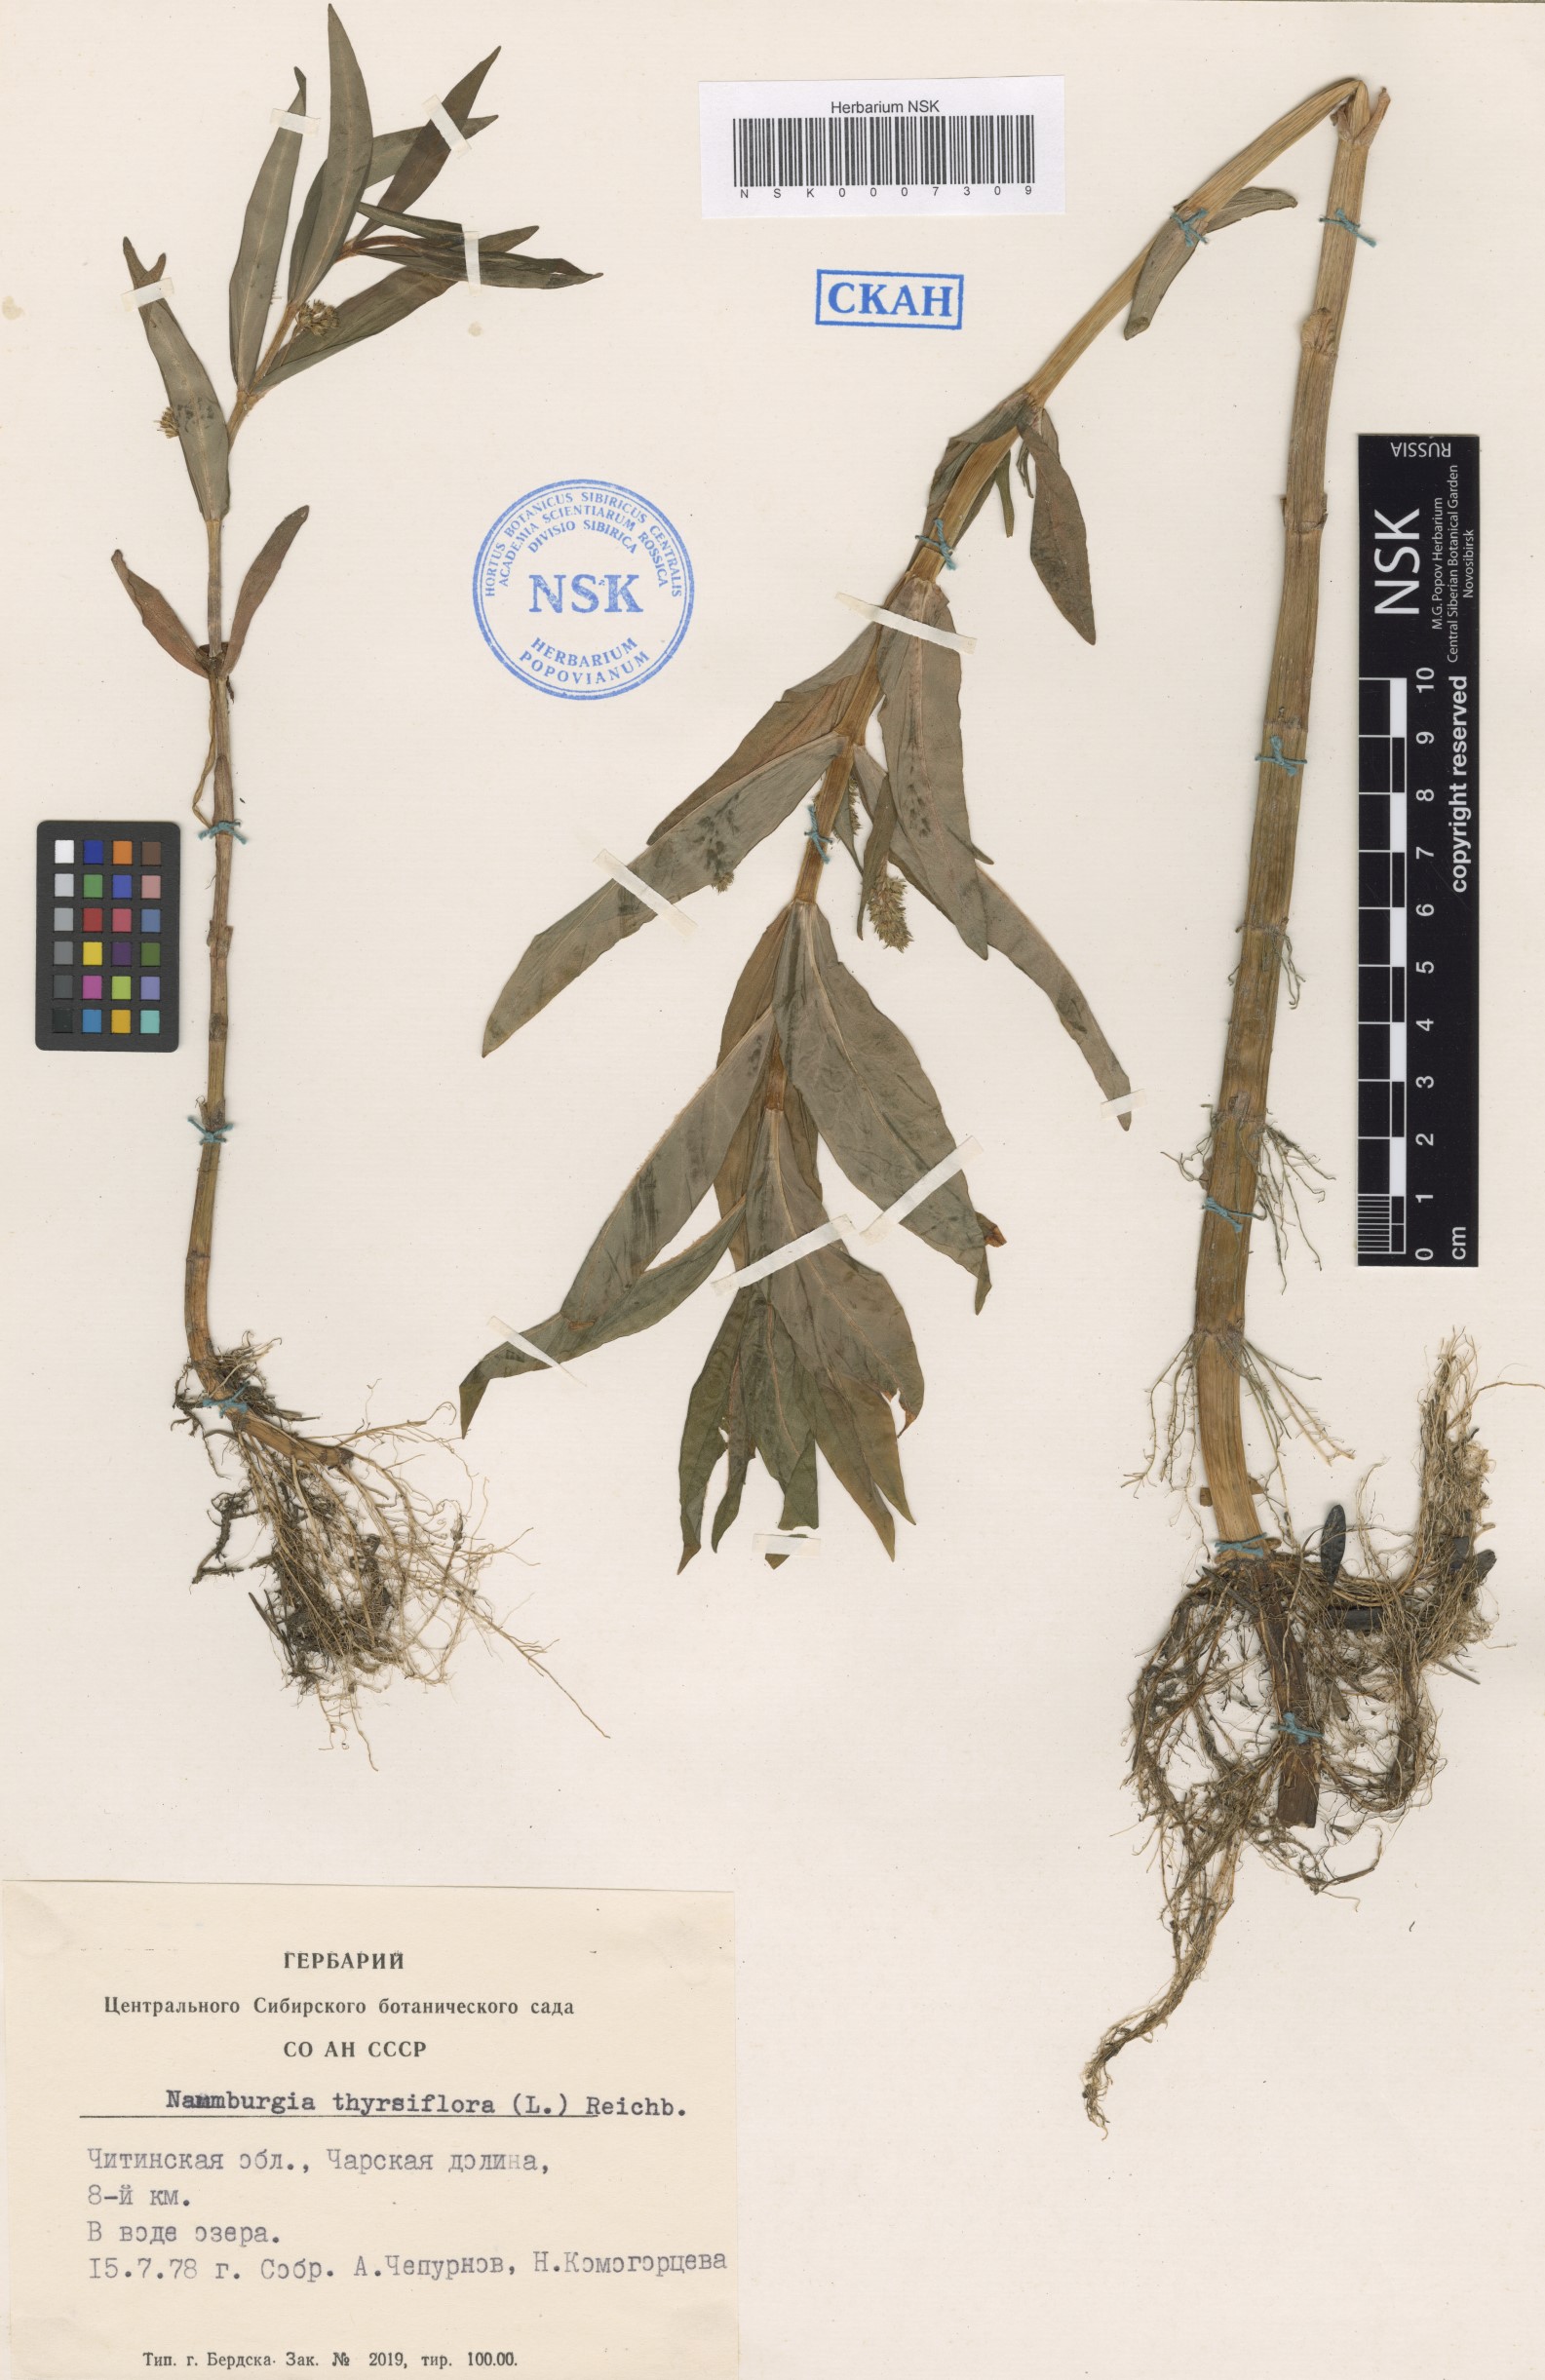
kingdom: Plantae
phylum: Tracheophyta
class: Magnoliopsida
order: Ericales
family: Primulaceae
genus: Lysimachia
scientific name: Lysimachia thyrsiflora
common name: Tufted loosestrife
